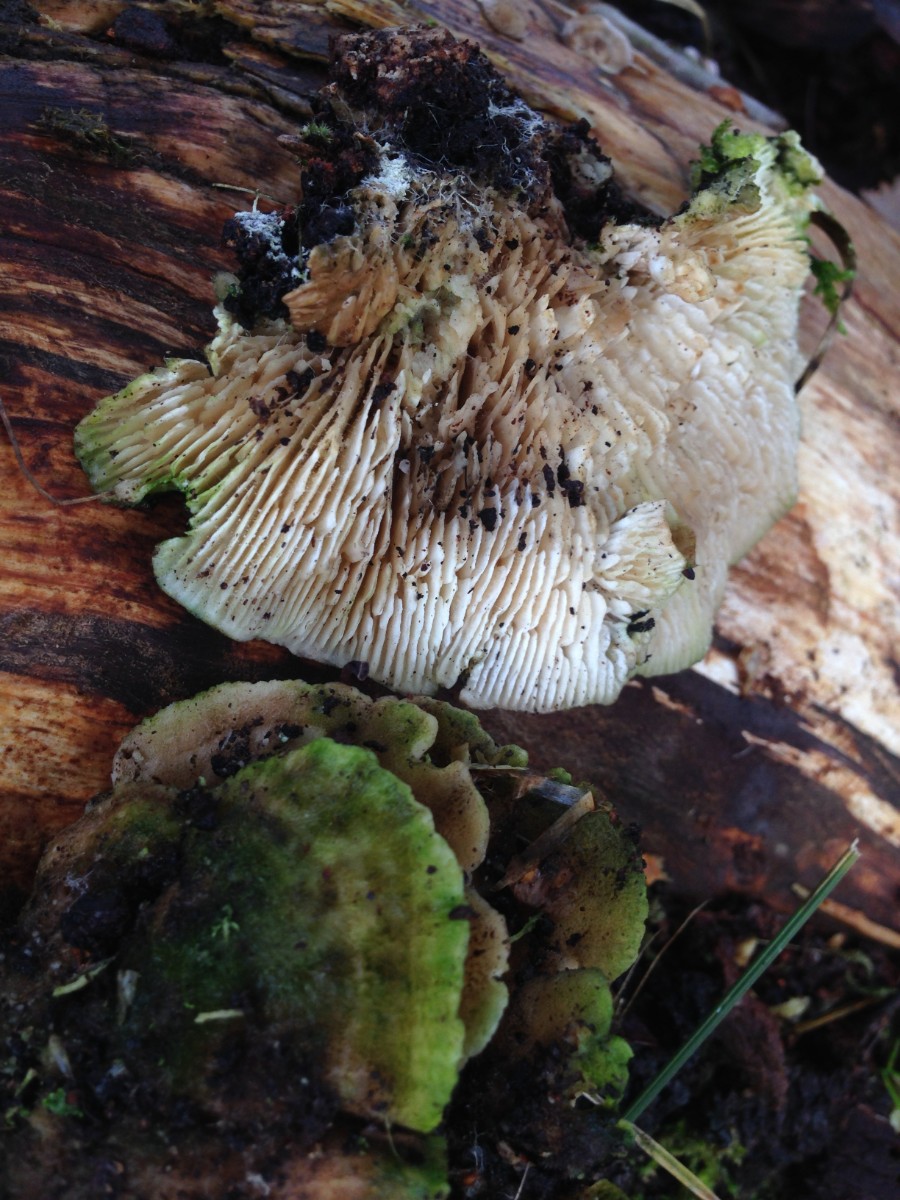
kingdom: Fungi
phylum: Basidiomycota
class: Agaricomycetes
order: Polyporales
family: Polyporaceae
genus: Lenzites
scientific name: Lenzites betulinus
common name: birke-læderporesvamp
